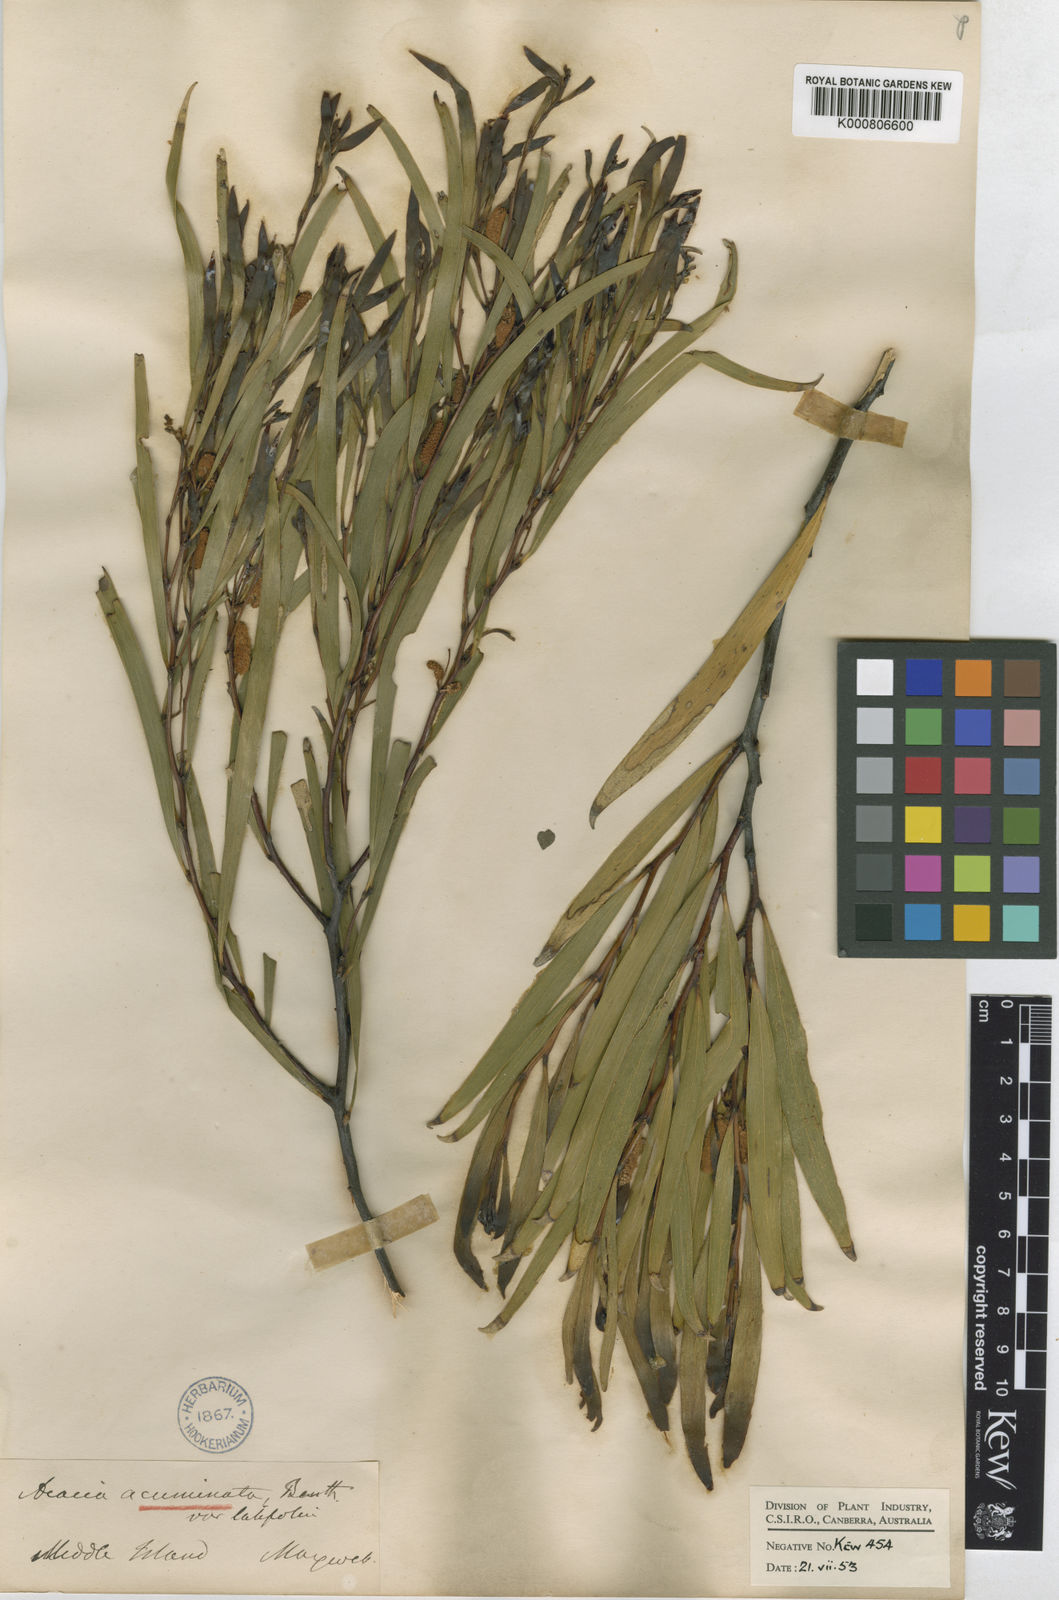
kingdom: Plantae
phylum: Tracheophyta
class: Magnoliopsida
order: Fabales
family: Fabaceae
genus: Acacia
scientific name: Acacia acuminata
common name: Jam wattle
